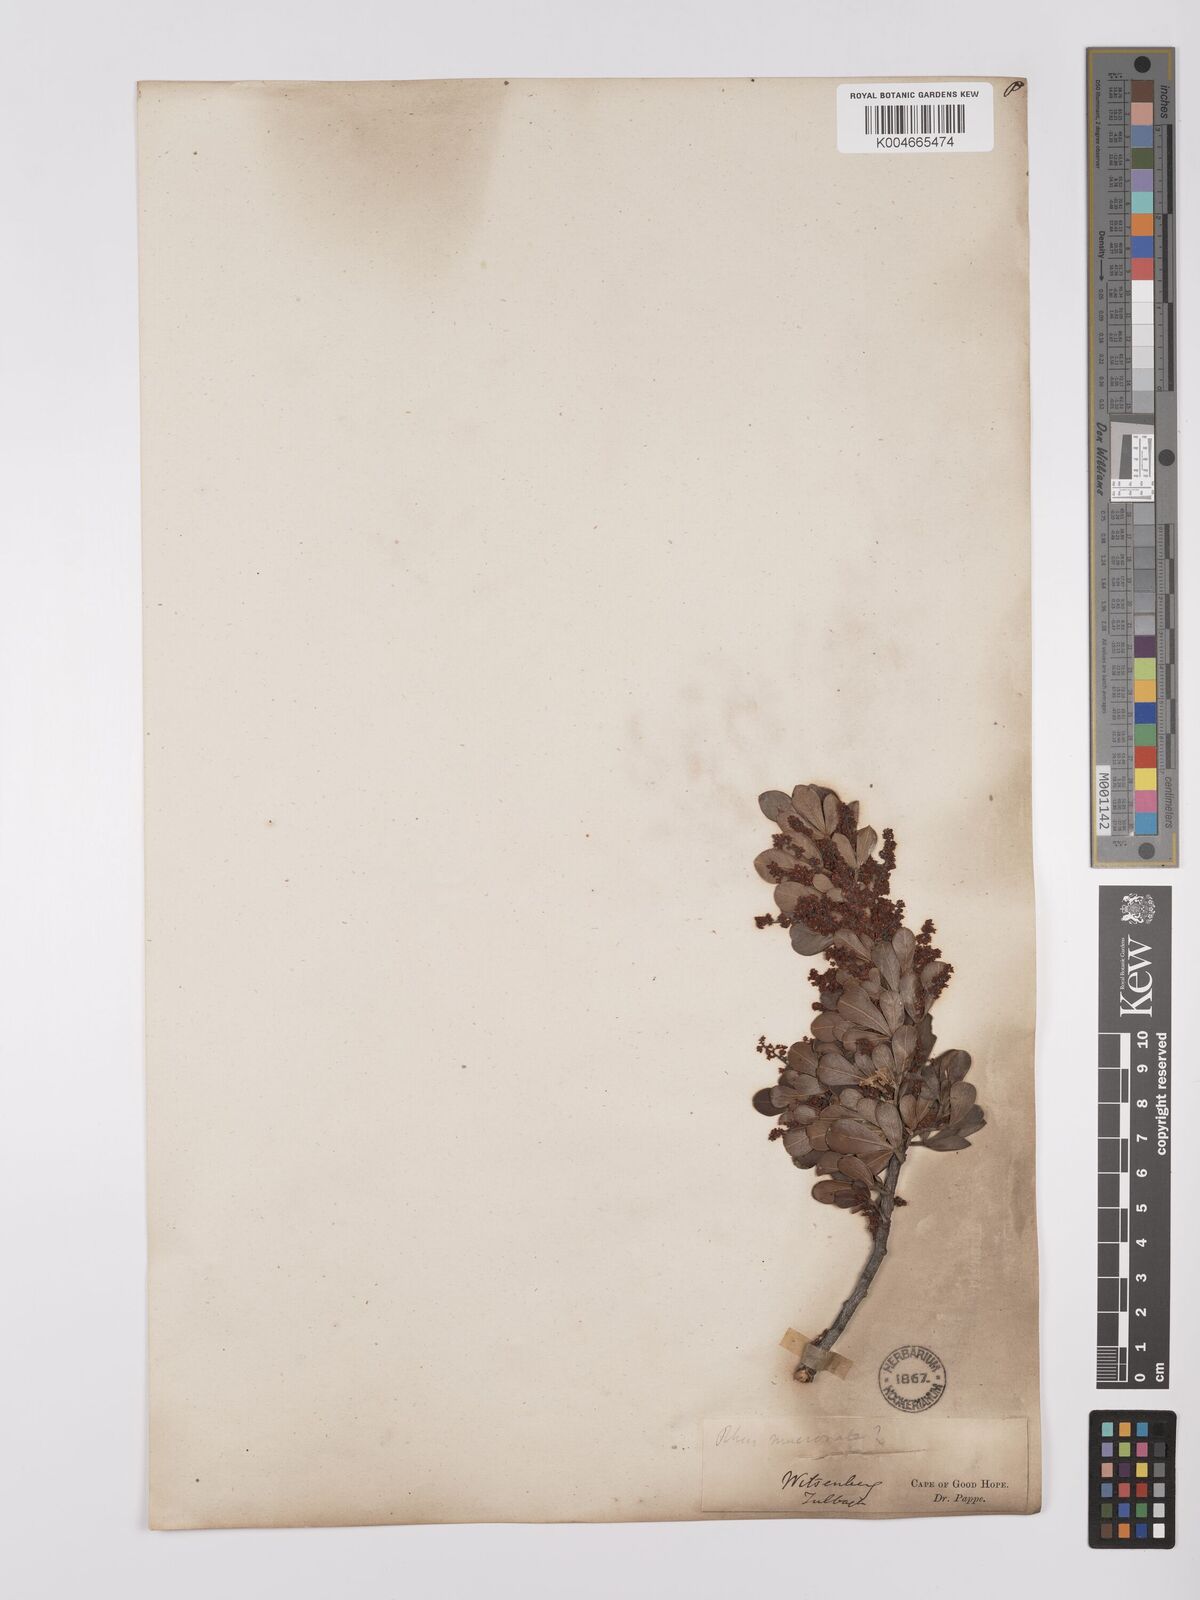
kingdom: Plantae
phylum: Tracheophyta
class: Magnoliopsida
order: Sapindales
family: Anacardiaceae
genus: Searsia
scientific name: Searsia scytophylla
